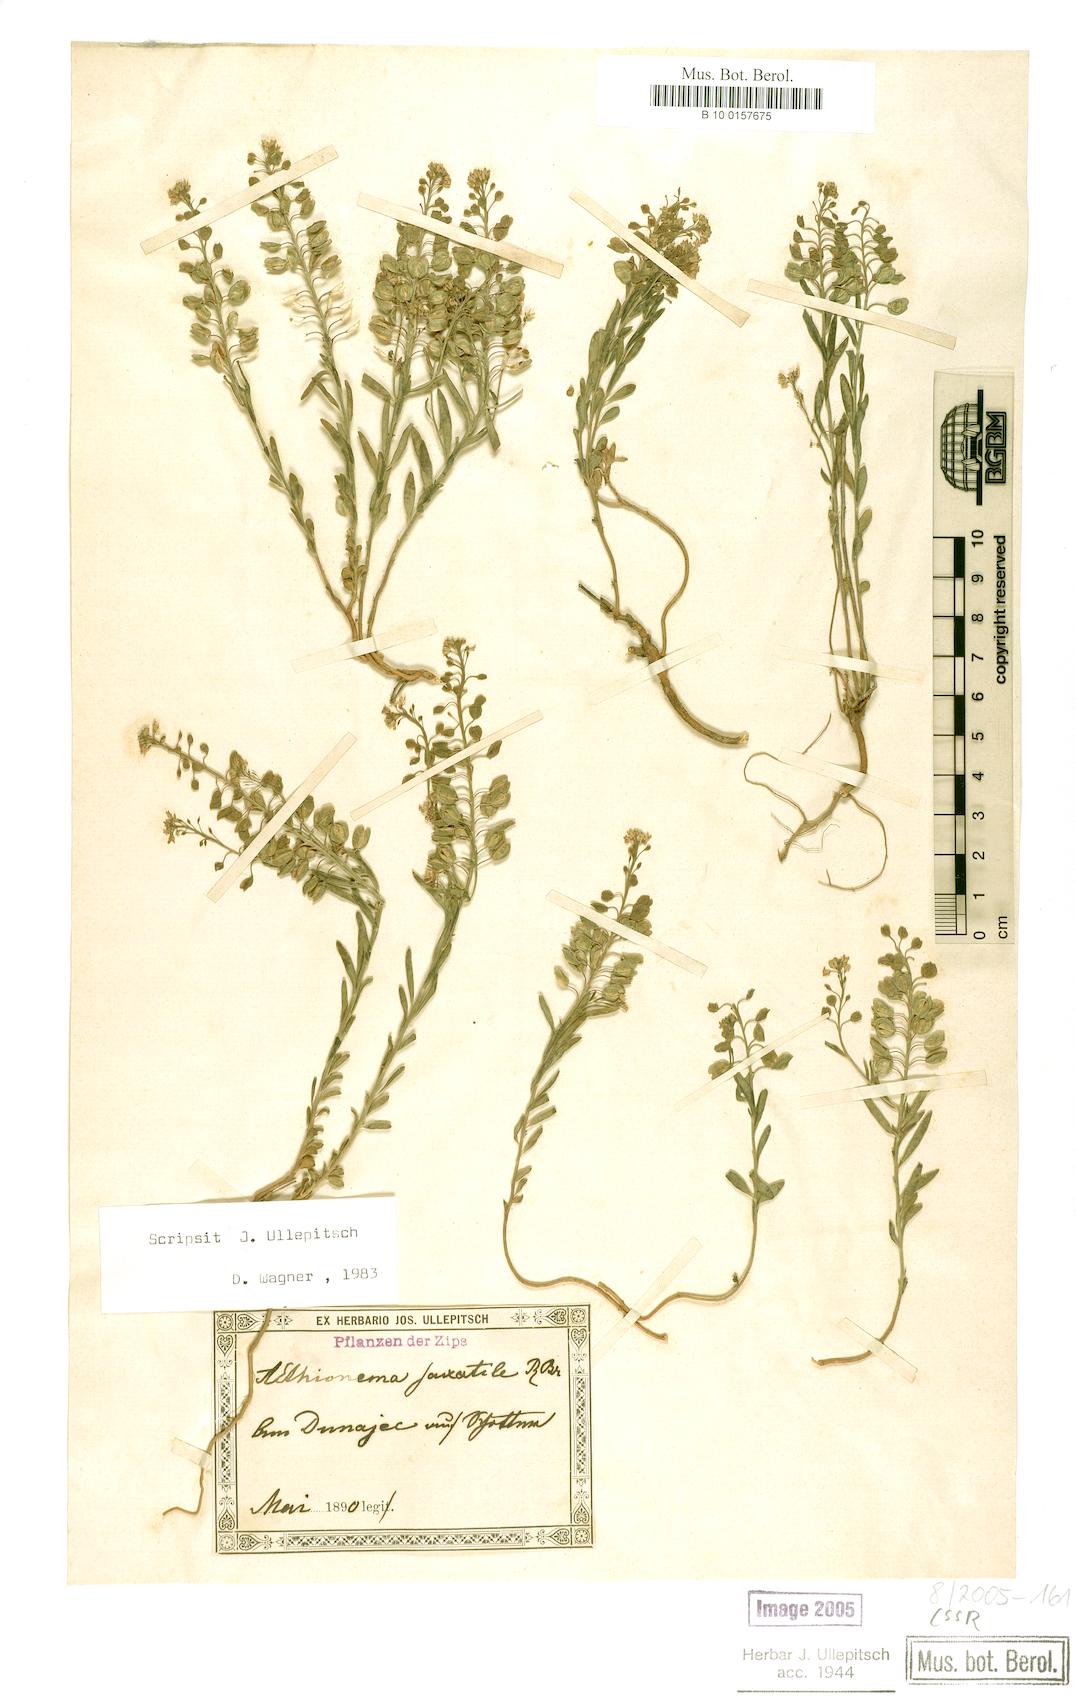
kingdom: Plantae
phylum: Tracheophyta
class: Magnoliopsida
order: Brassicales
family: Brassicaceae
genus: Aethionema
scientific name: Aethionema saxatile
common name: Burnt candytuft
